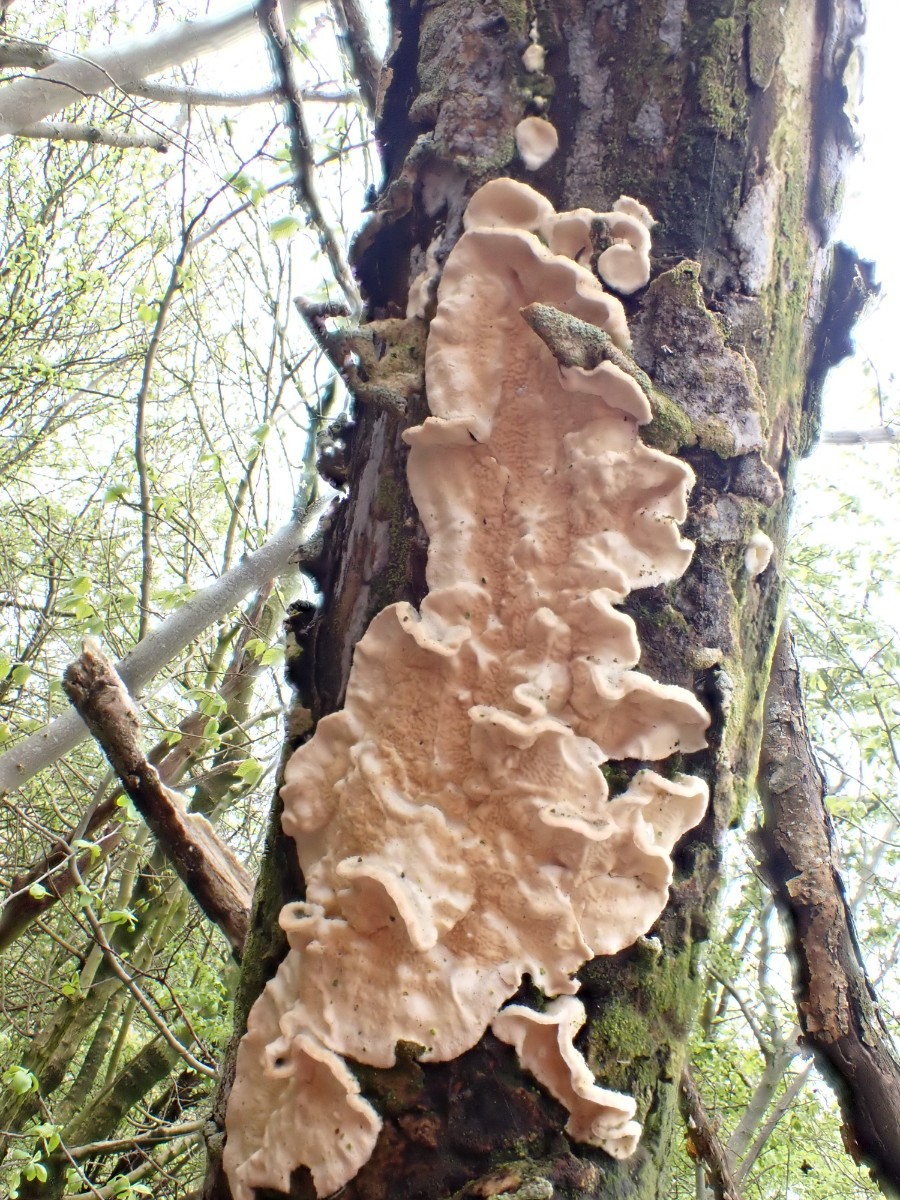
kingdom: Fungi
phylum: Basidiomycota
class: Agaricomycetes
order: Polyporales
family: Irpicaceae
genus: Byssomerulius
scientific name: Byssomerulius corium
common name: læder-åresvamp
